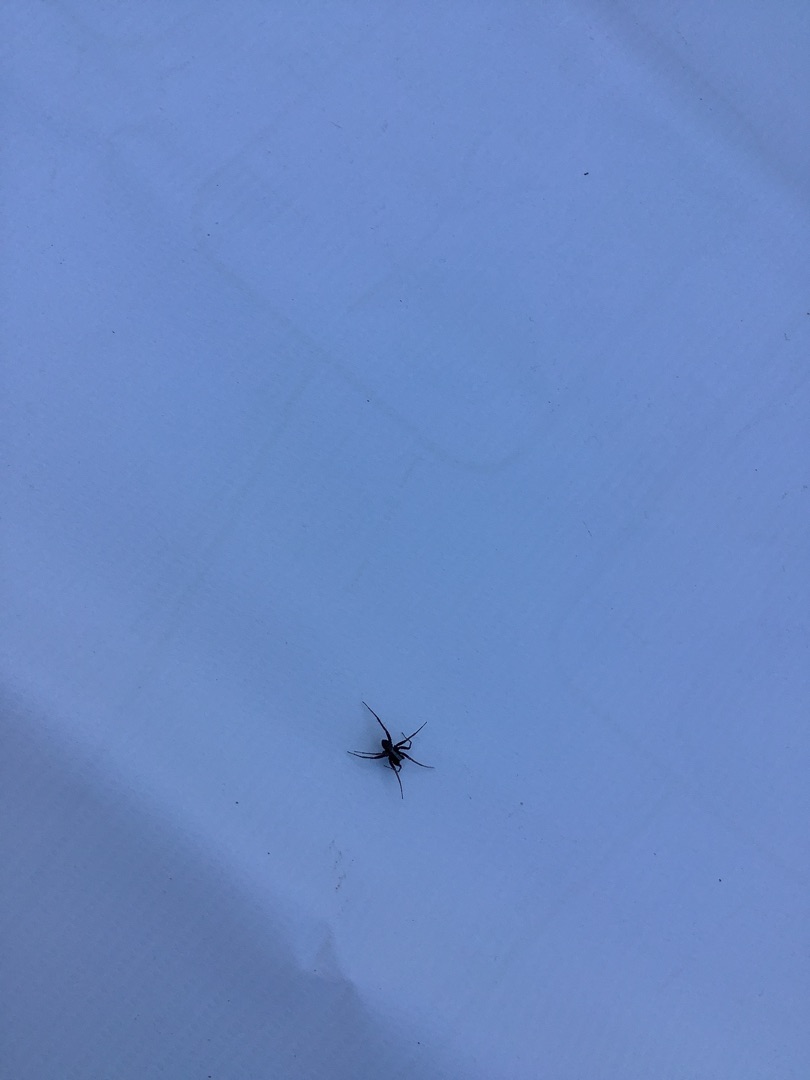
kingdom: Animalia
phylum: Arthropoda
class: Arachnida
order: Araneae
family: Lycosidae
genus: Pardosa
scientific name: Pardosa
